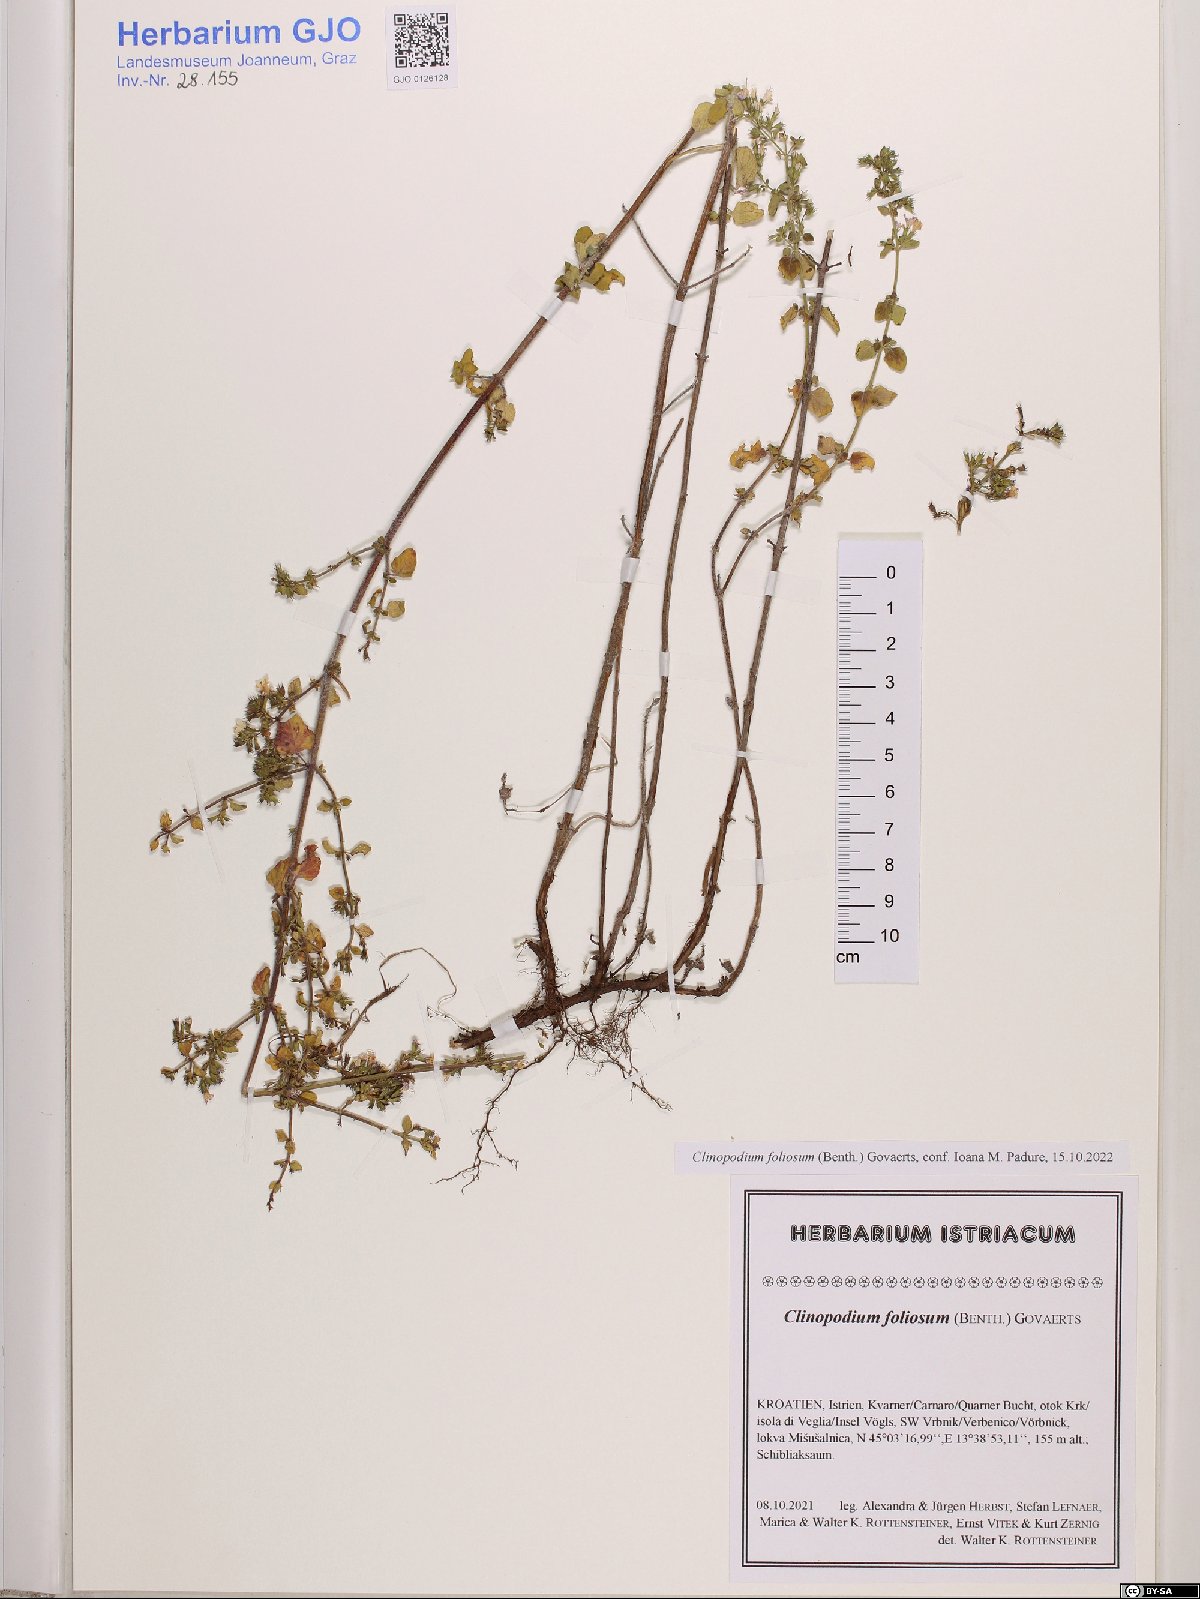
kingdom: Plantae
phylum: Tracheophyta
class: Magnoliopsida
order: Lamiales
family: Lamiaceae
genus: Clinopodium
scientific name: Clinopodium foliolosum
